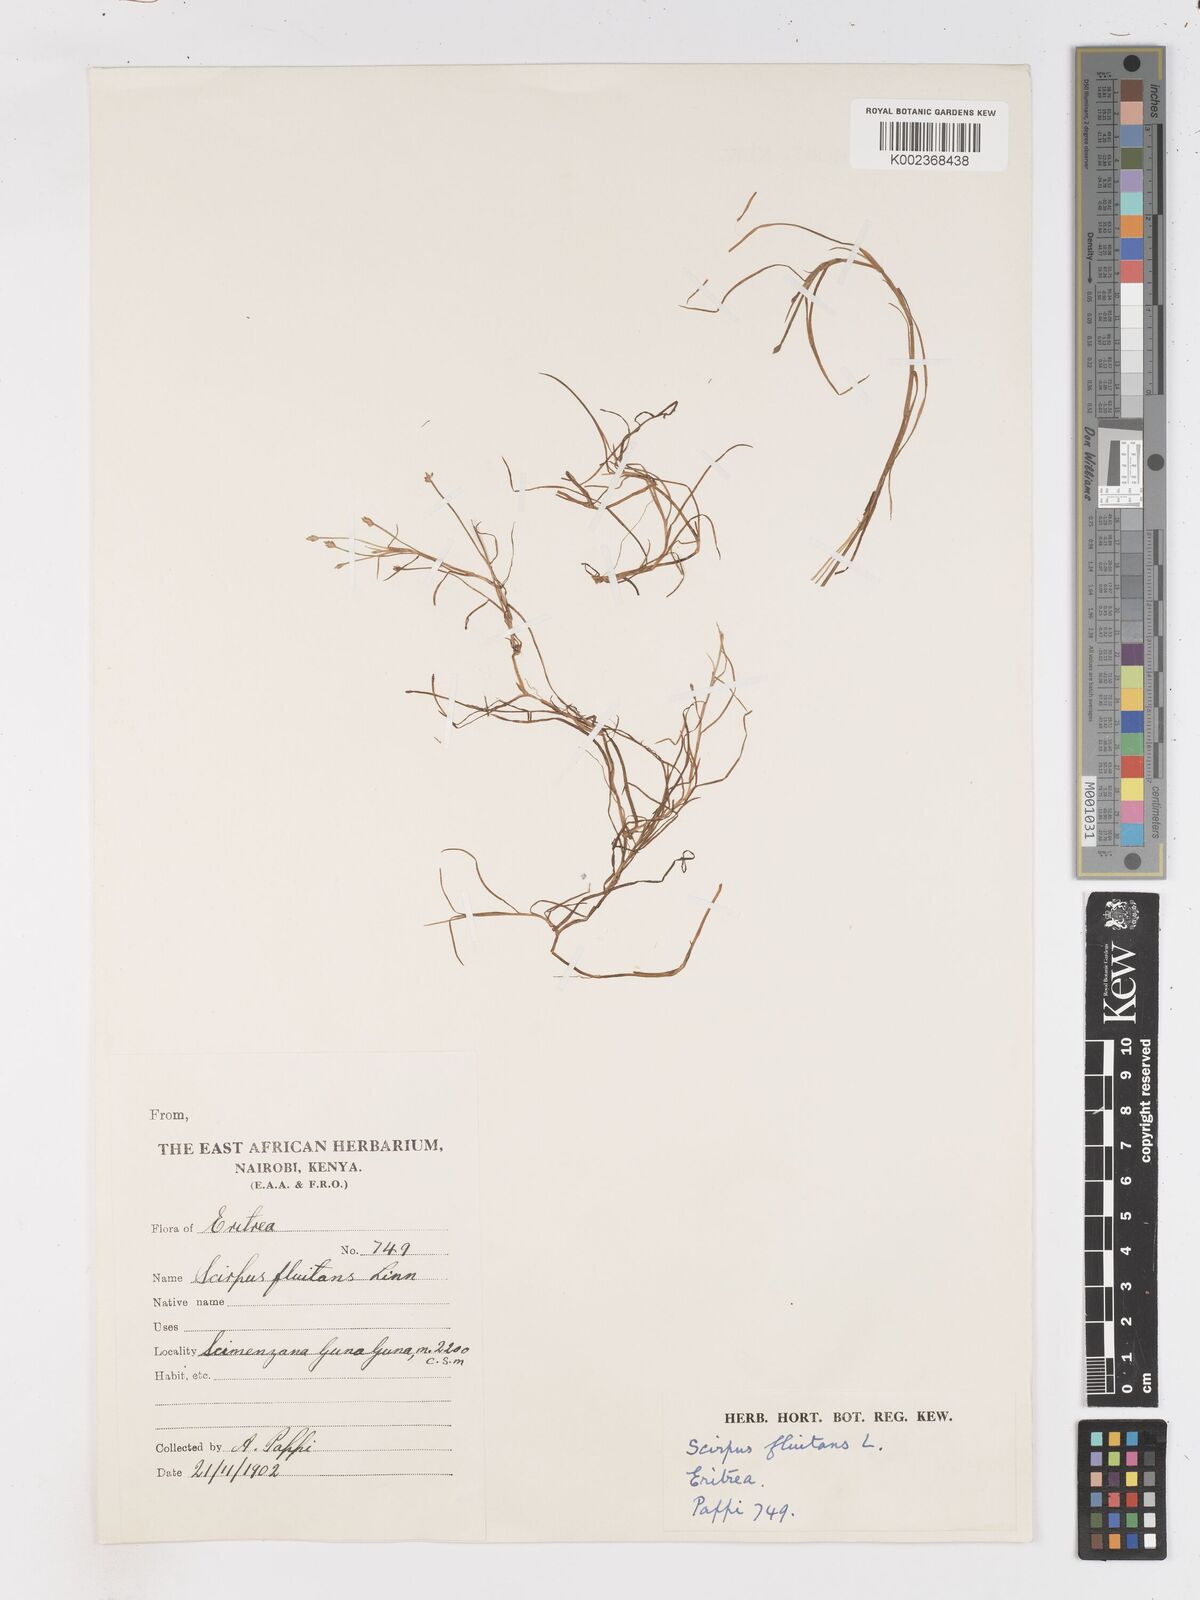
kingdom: Plantae
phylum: Tracheophyta
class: Liliopsida
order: Poales
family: Cyperaceae
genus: Isolepis
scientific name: Isolepis fluitans
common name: Floating club-rush
